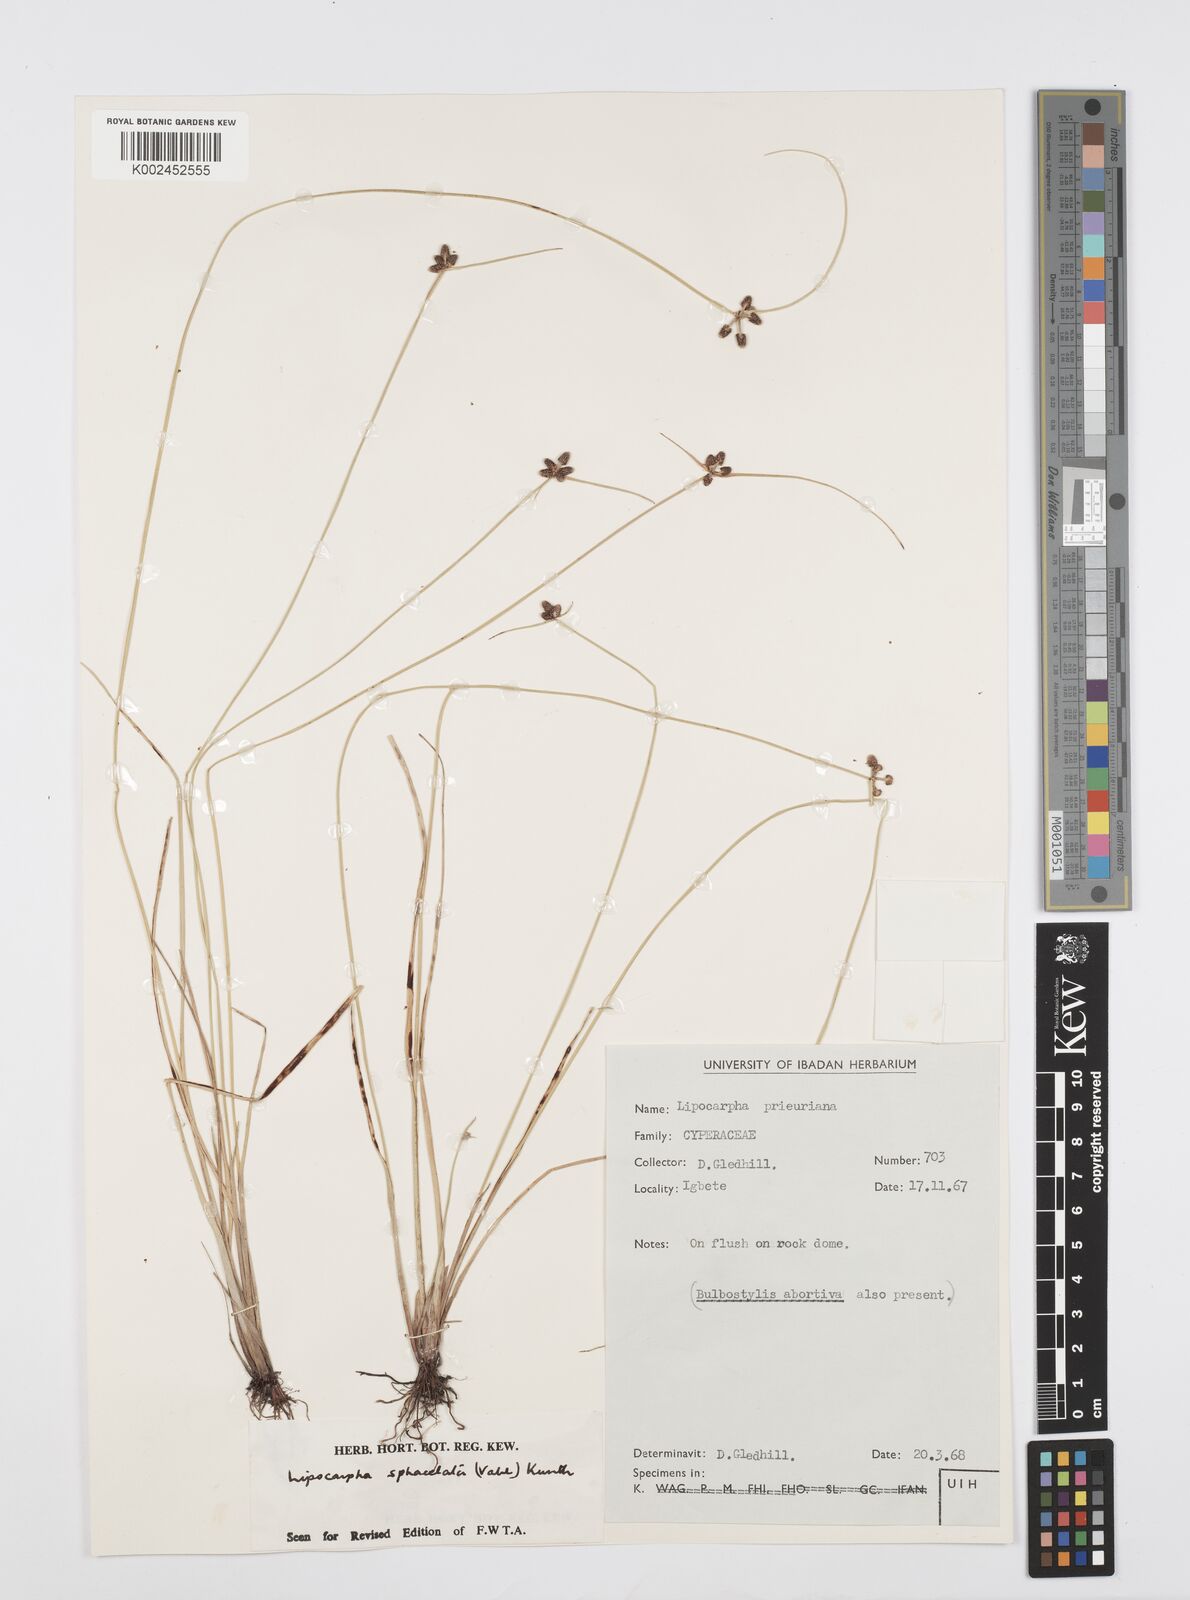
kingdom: Plantae
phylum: Tracheophyta
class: Liliopsida
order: Poales
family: Cyperaceae
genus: Cyperus
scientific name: Cyperus filiformis
